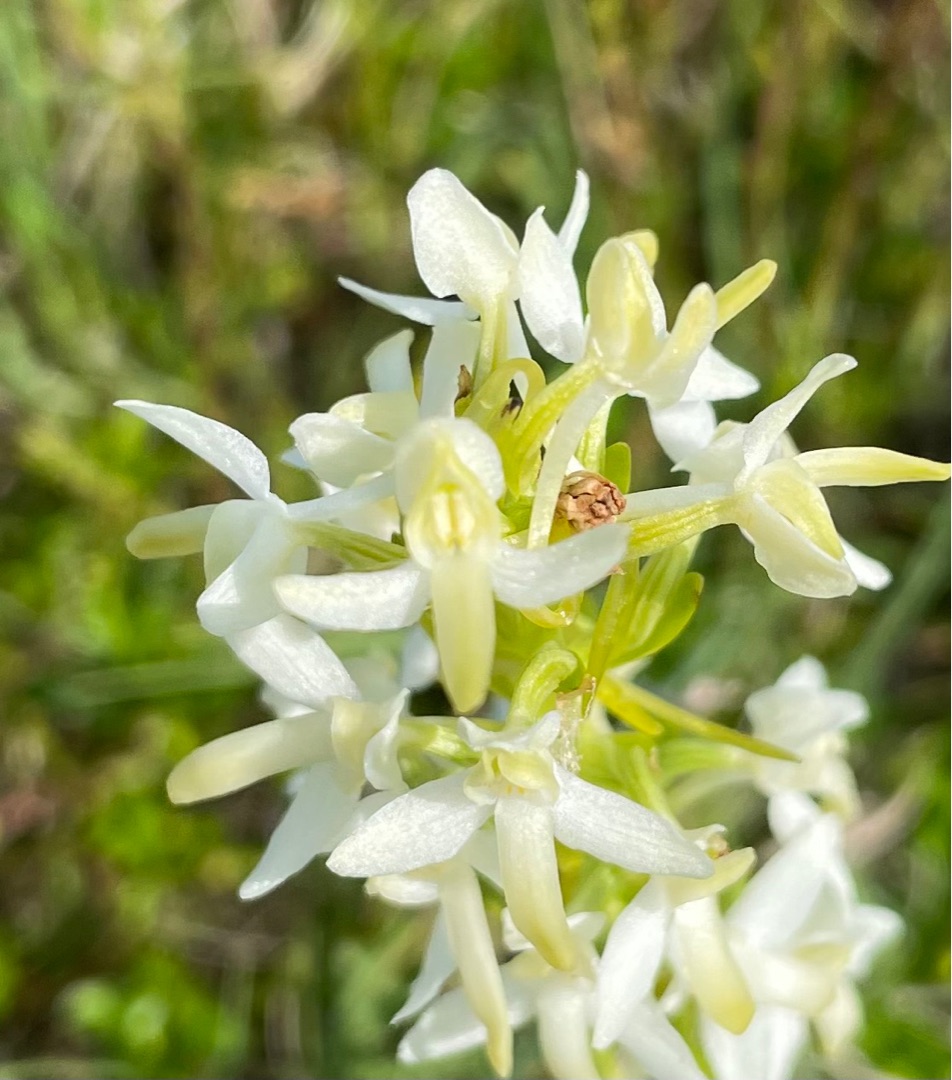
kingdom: Plantae
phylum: Tracheophyta
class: Liliopsida
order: Asparagales
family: Orchidaceae
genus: Platanthera
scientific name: Platanthera bifolia
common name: Bakke-gøgelilje
